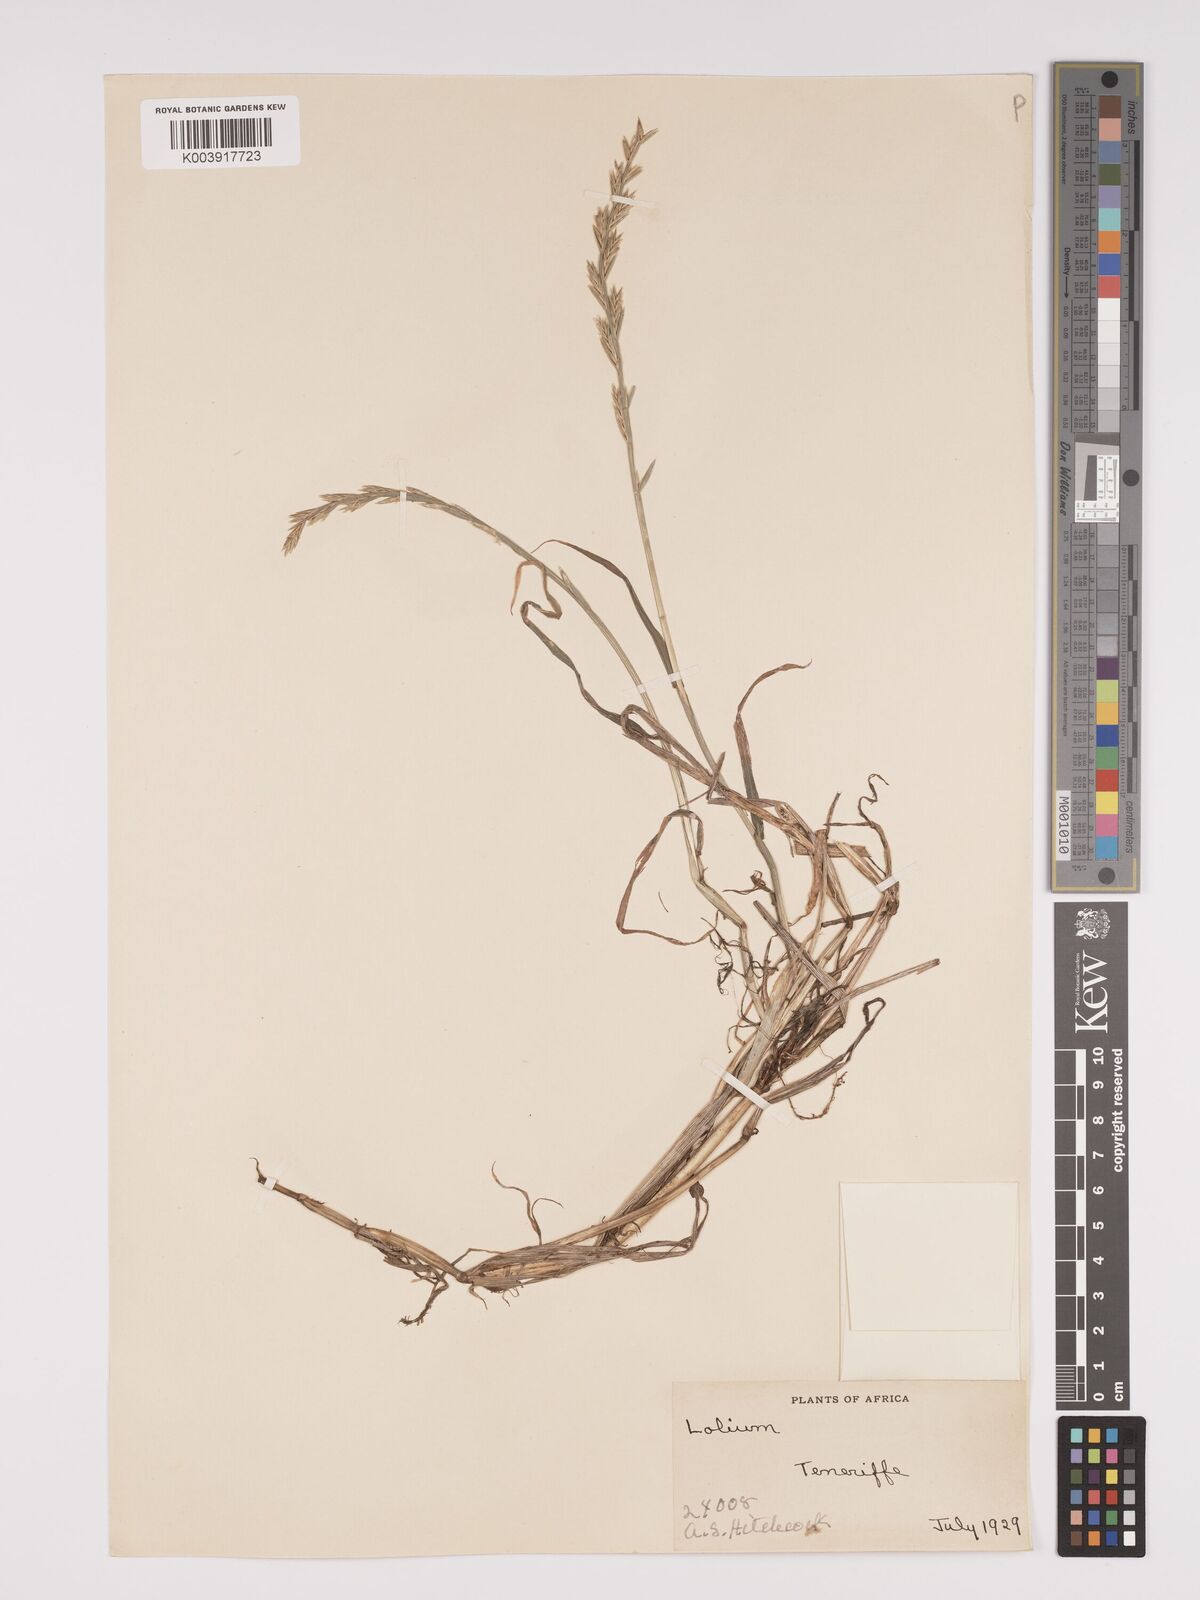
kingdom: Plantae
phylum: Tracheophyta
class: Liliopsida
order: Poales
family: Poaceae
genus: Lolium
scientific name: Lolium perenne
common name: Perennial ryegrass
